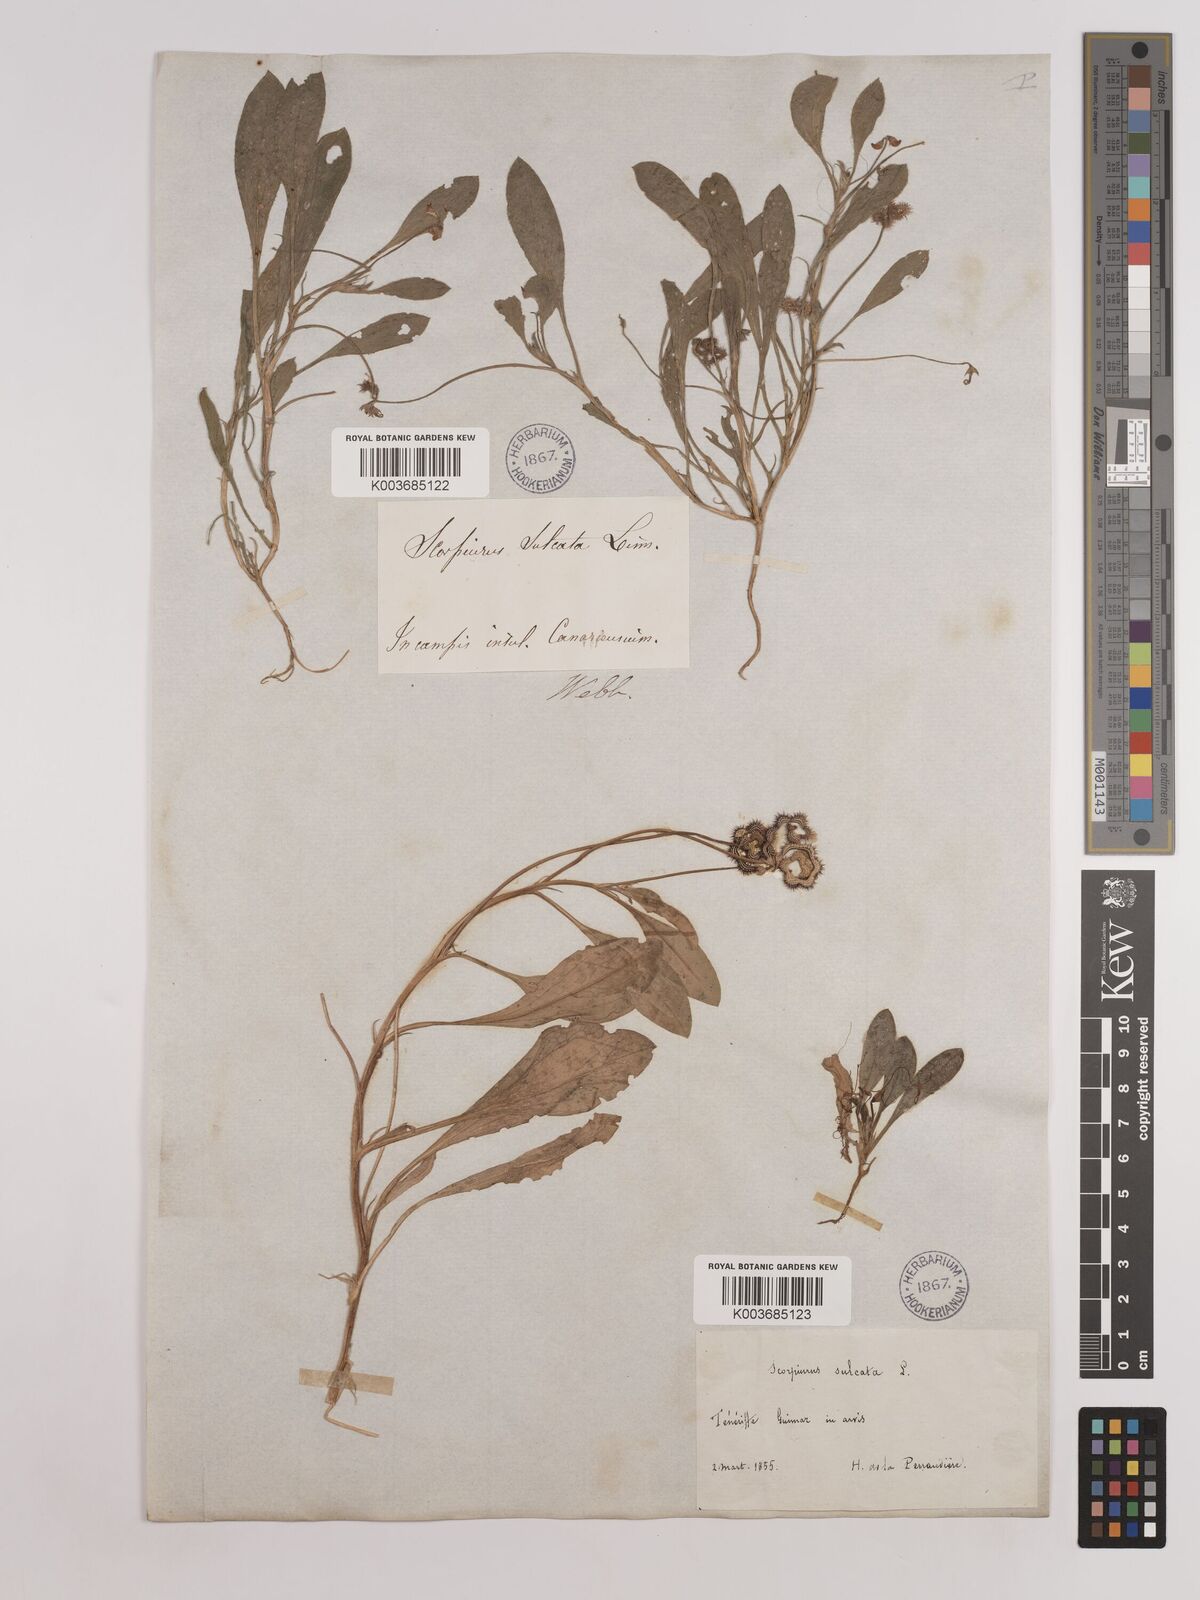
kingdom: Plantae
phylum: Tracheophyta
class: Magnoliopsida
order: Fabales
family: Fabaceae
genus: Scorpiurus
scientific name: Scorpiurus muricatus
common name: Caterpillar-plant
